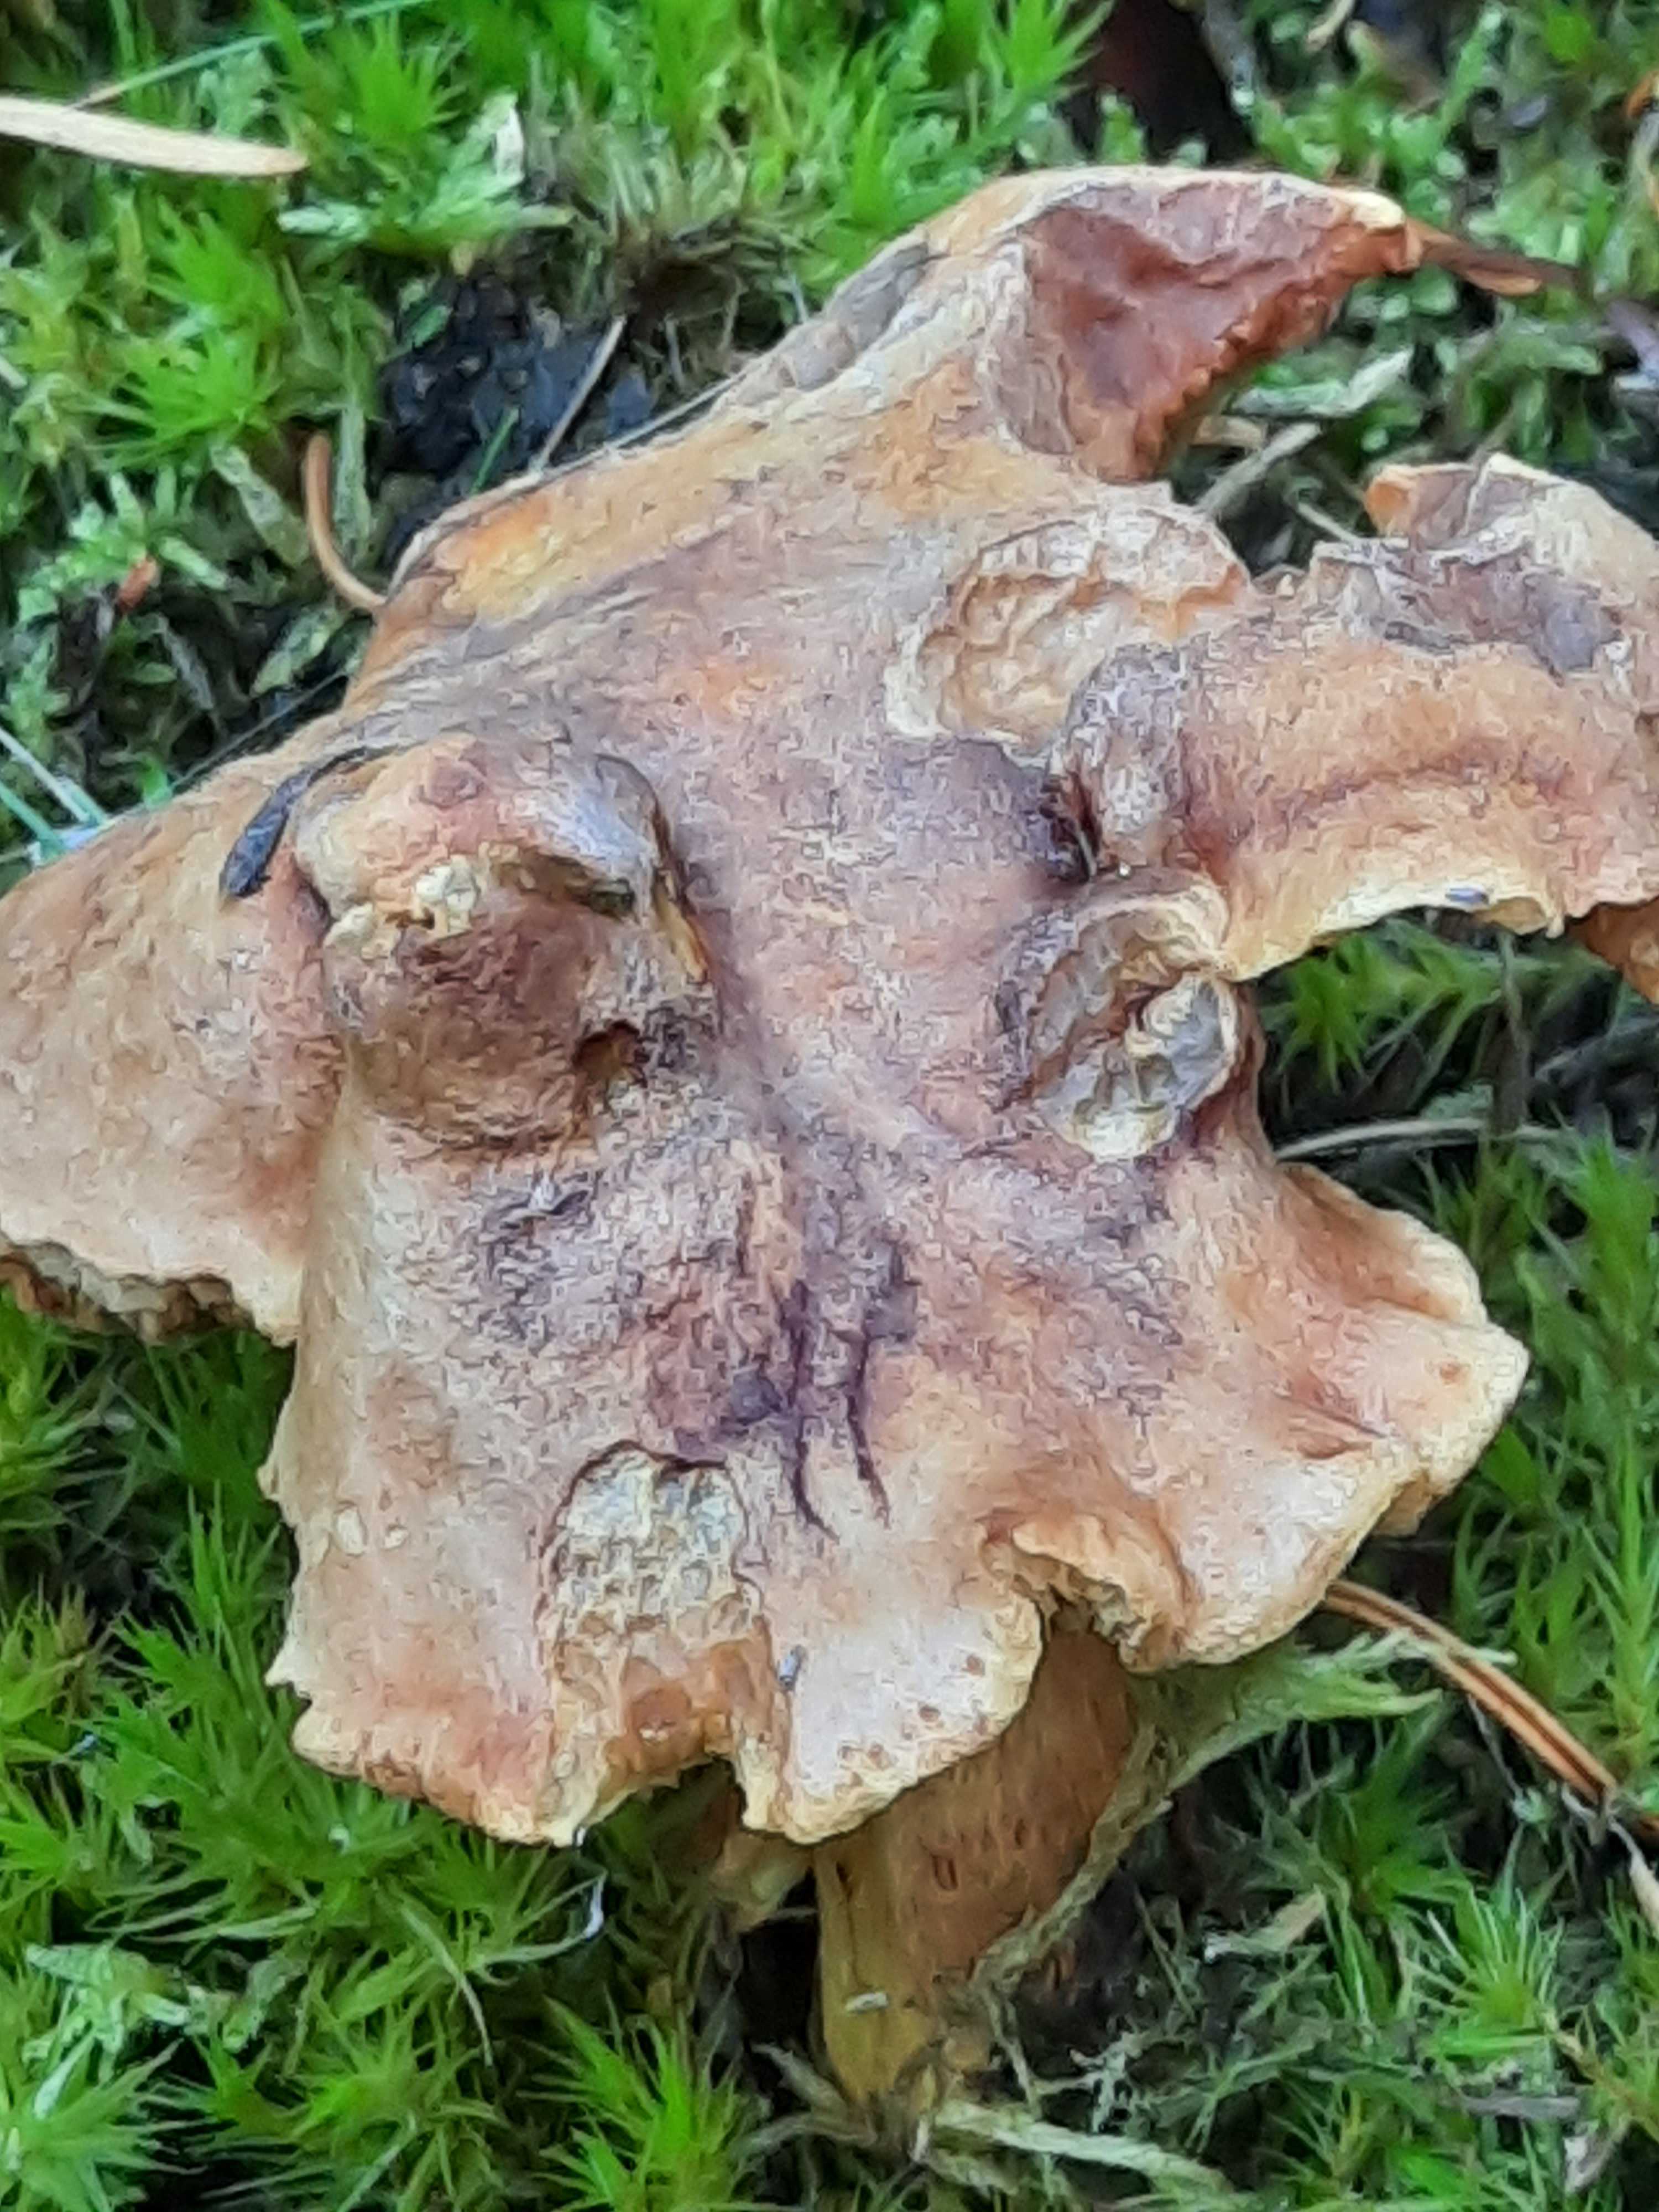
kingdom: Fungi
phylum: Basidiomycota
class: Agaricomycetes
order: Boletales
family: Boletaceae
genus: Chalciporus
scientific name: Chalciporus piperatus
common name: peberrørhat
